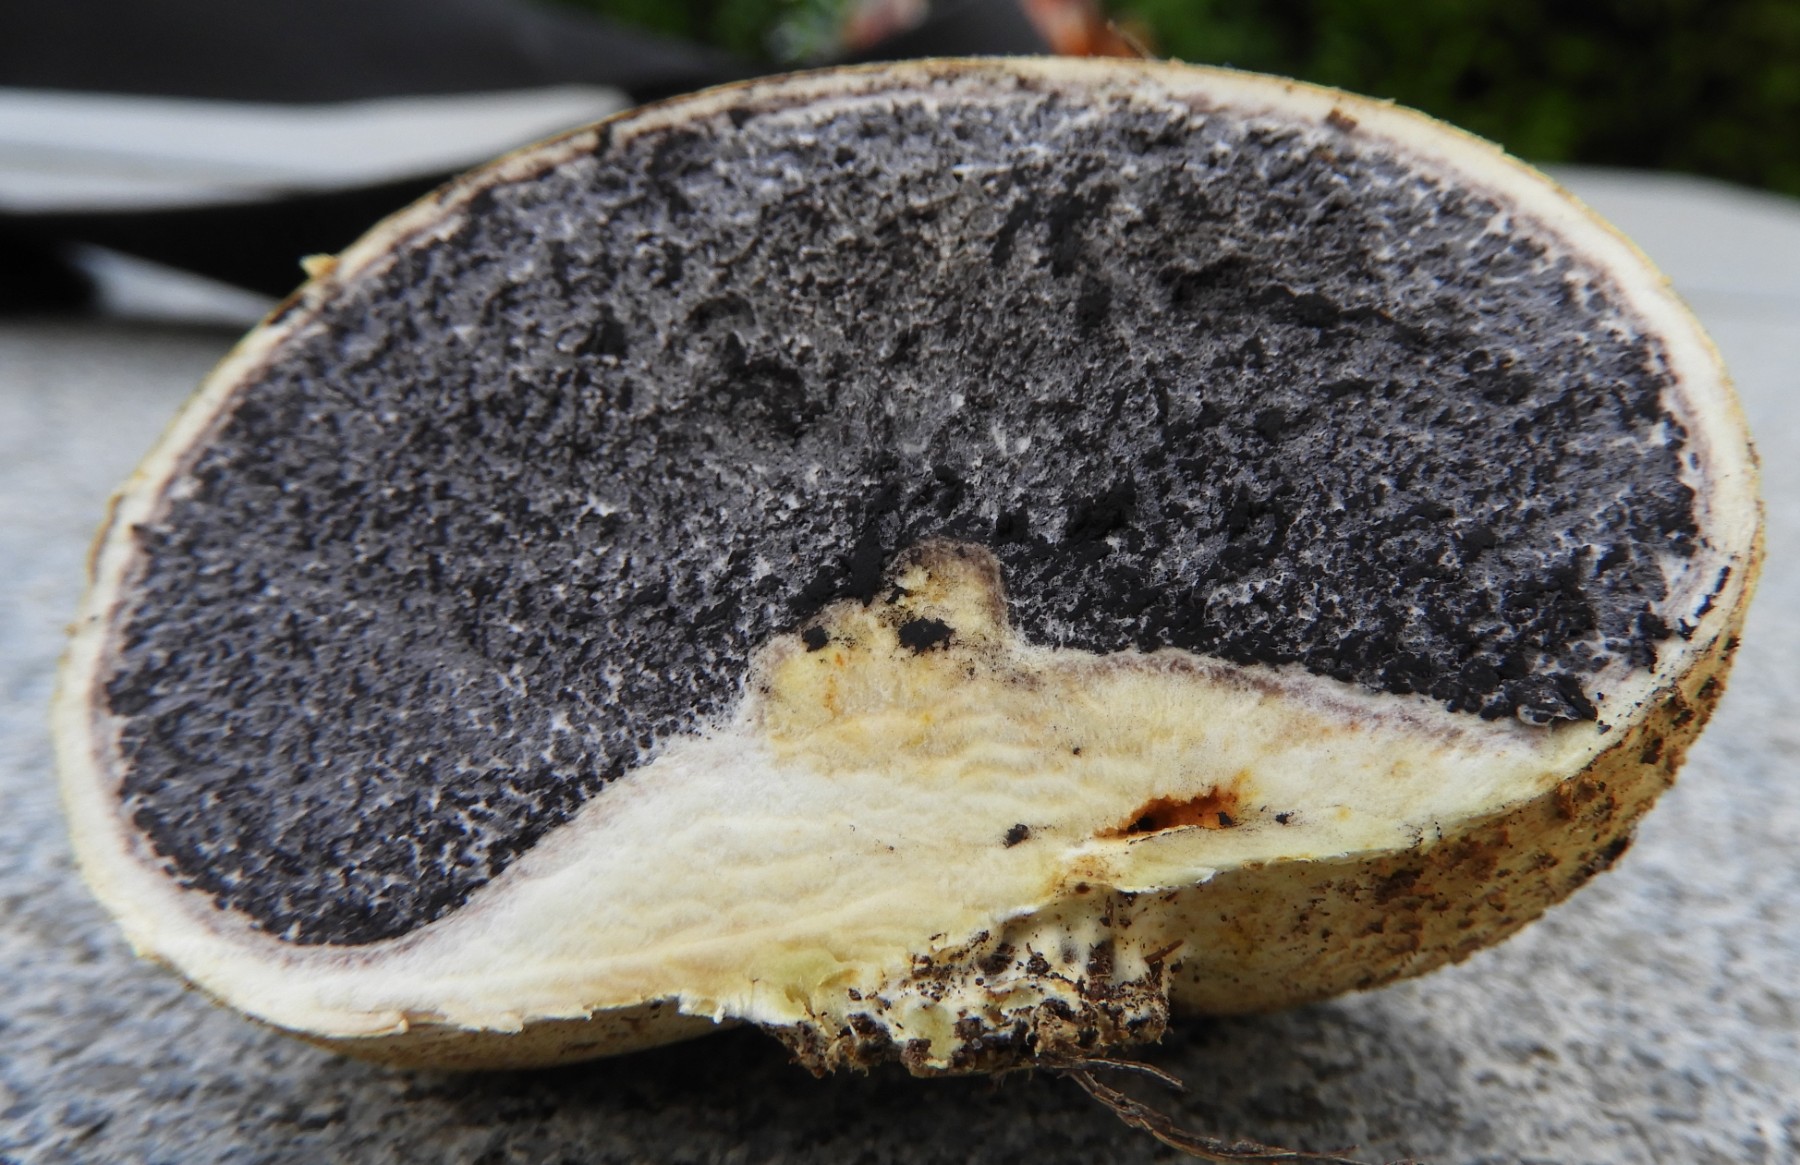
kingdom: Fungi
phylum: Basidiomycota
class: Agaricomycetes
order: Boletales
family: Sclerodermataceae
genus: Scleroderma
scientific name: Scleroderma citrinum
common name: almindelig bruskbold
